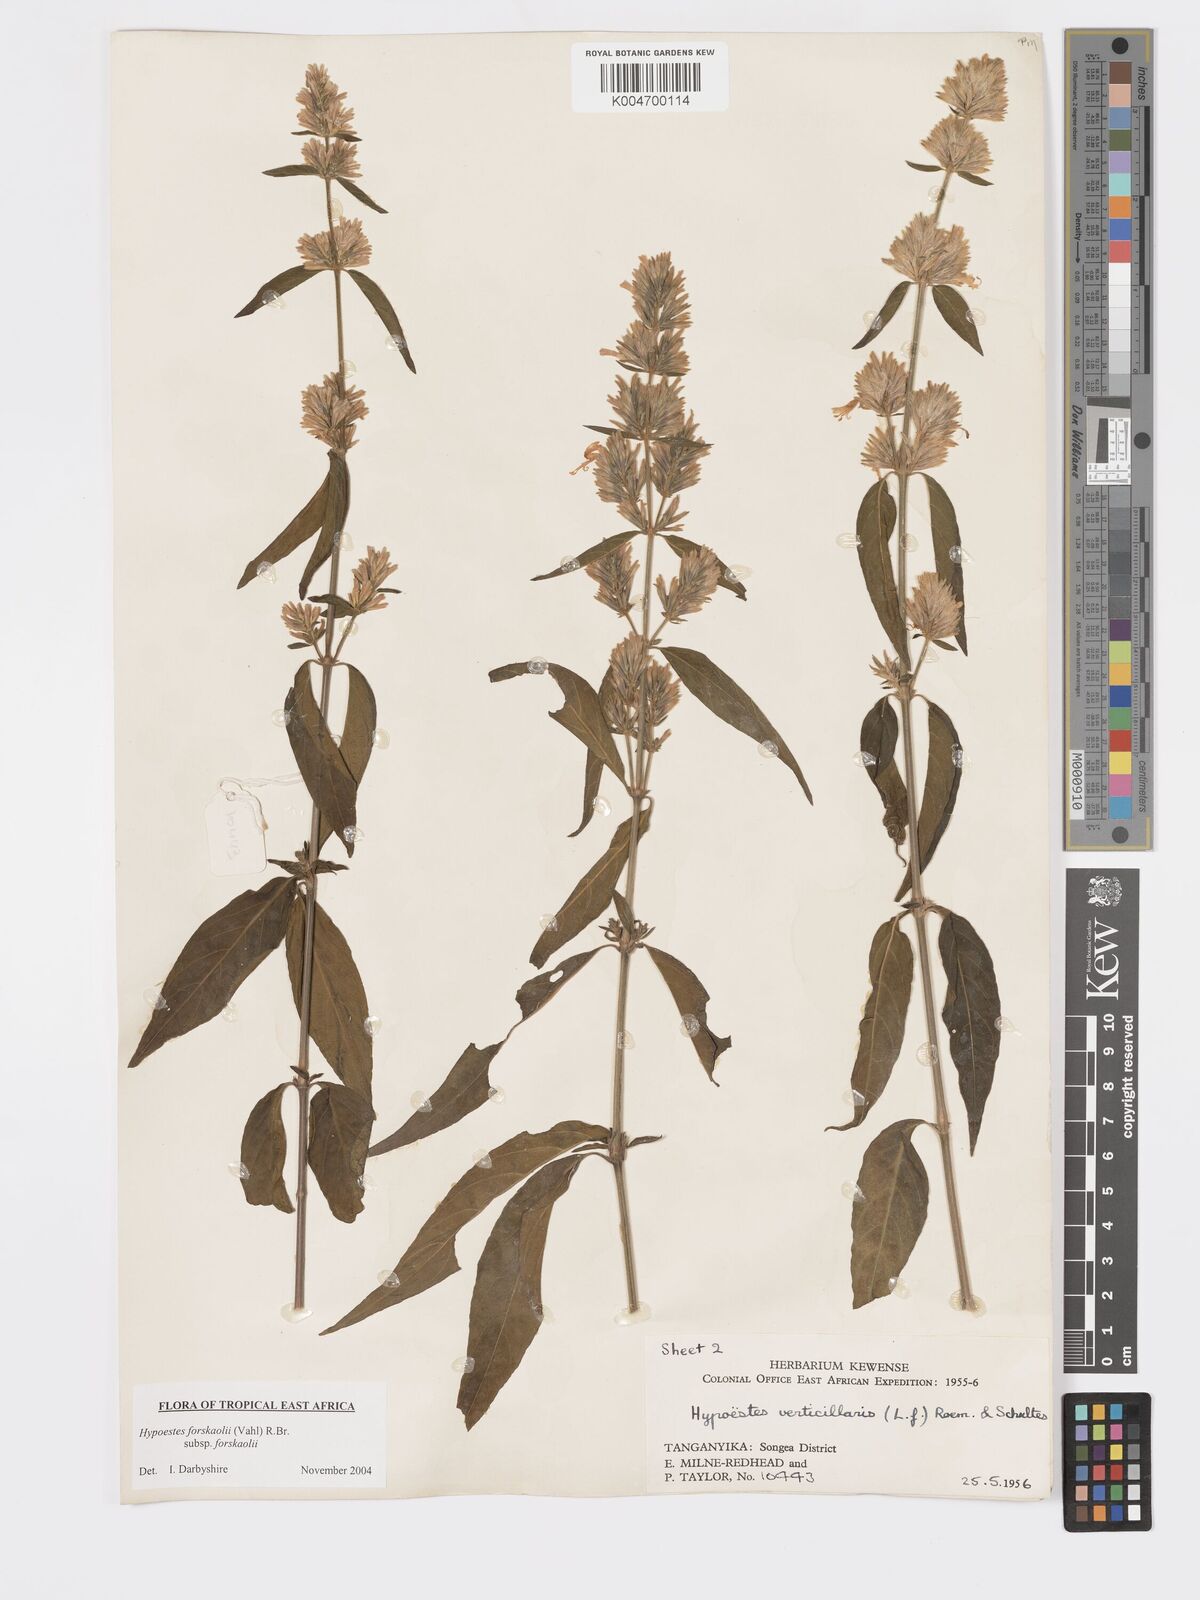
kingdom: Plantae
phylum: Tracheophyta
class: Magnoliopsida
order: Lamiales
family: Acanthaceae
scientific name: Acanthaceae
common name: Acanthaceae
